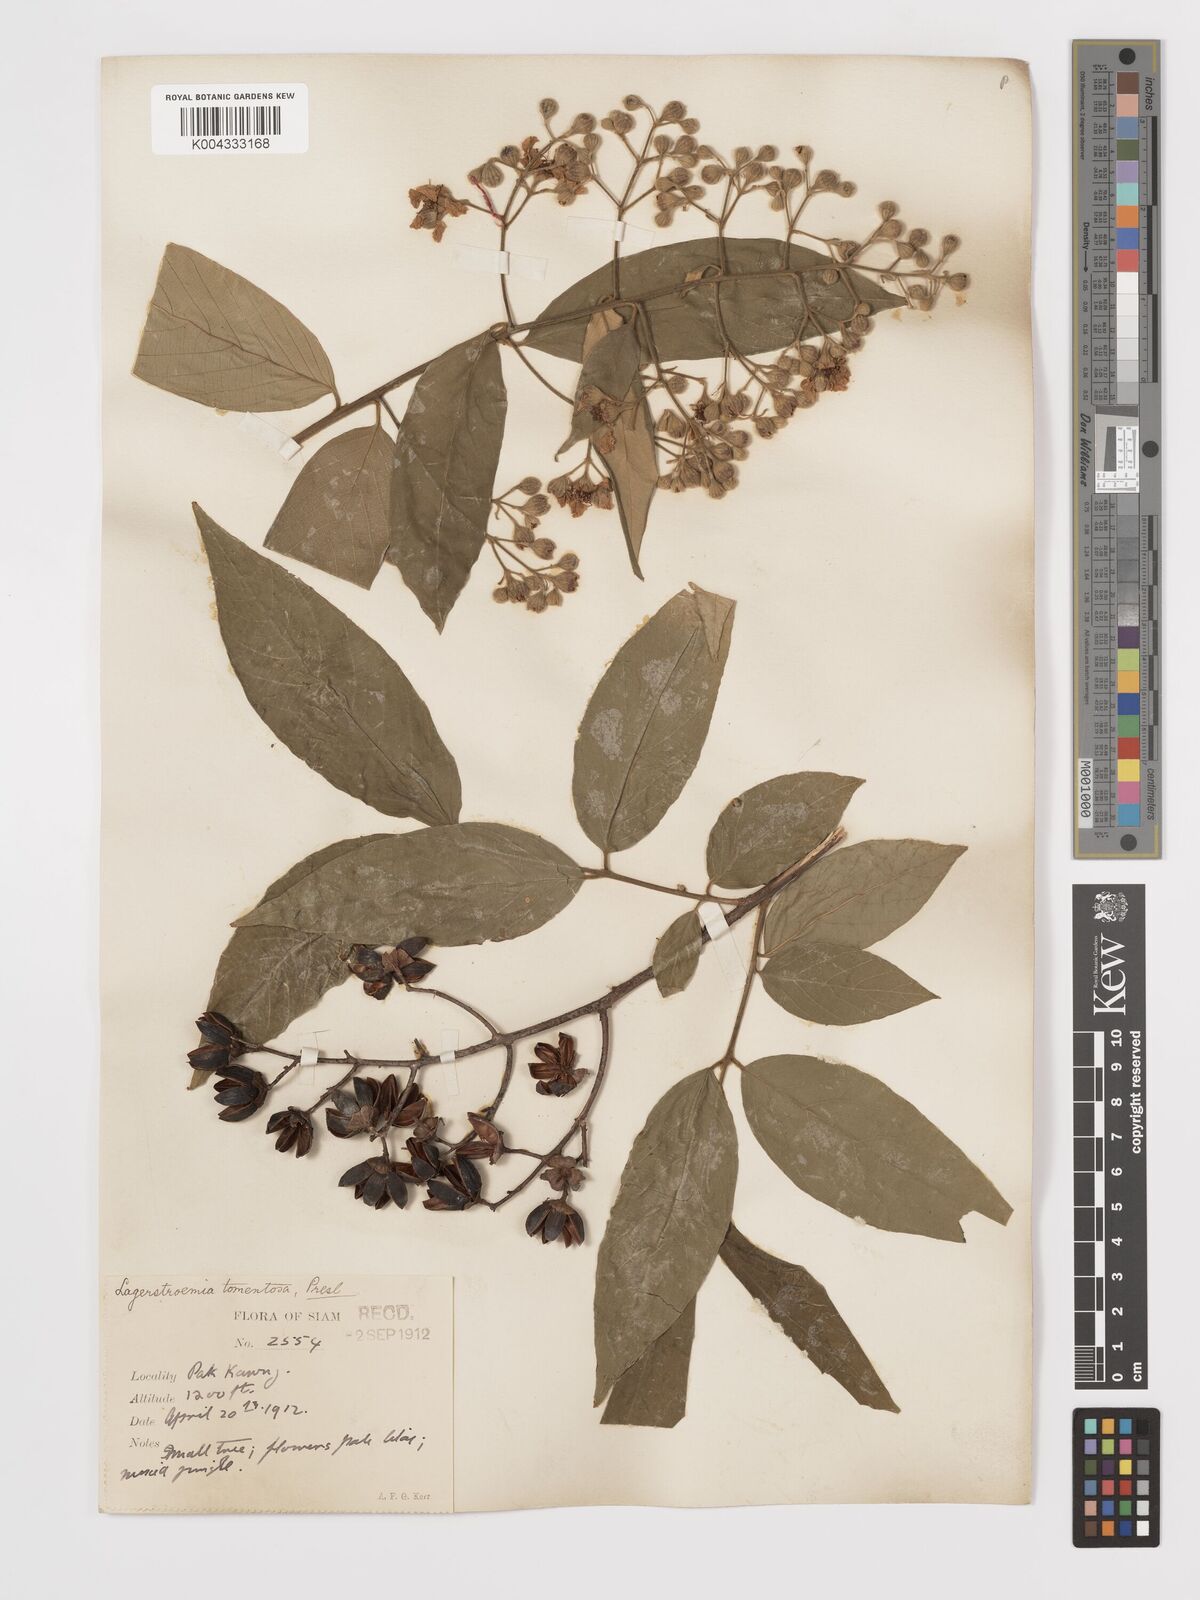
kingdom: Plantae
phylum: Tracheophyta
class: Magnoliopsida
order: Myrtales
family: Lythraceae
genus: Lagerstroemia
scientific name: Lagerstroemia tomentosa
